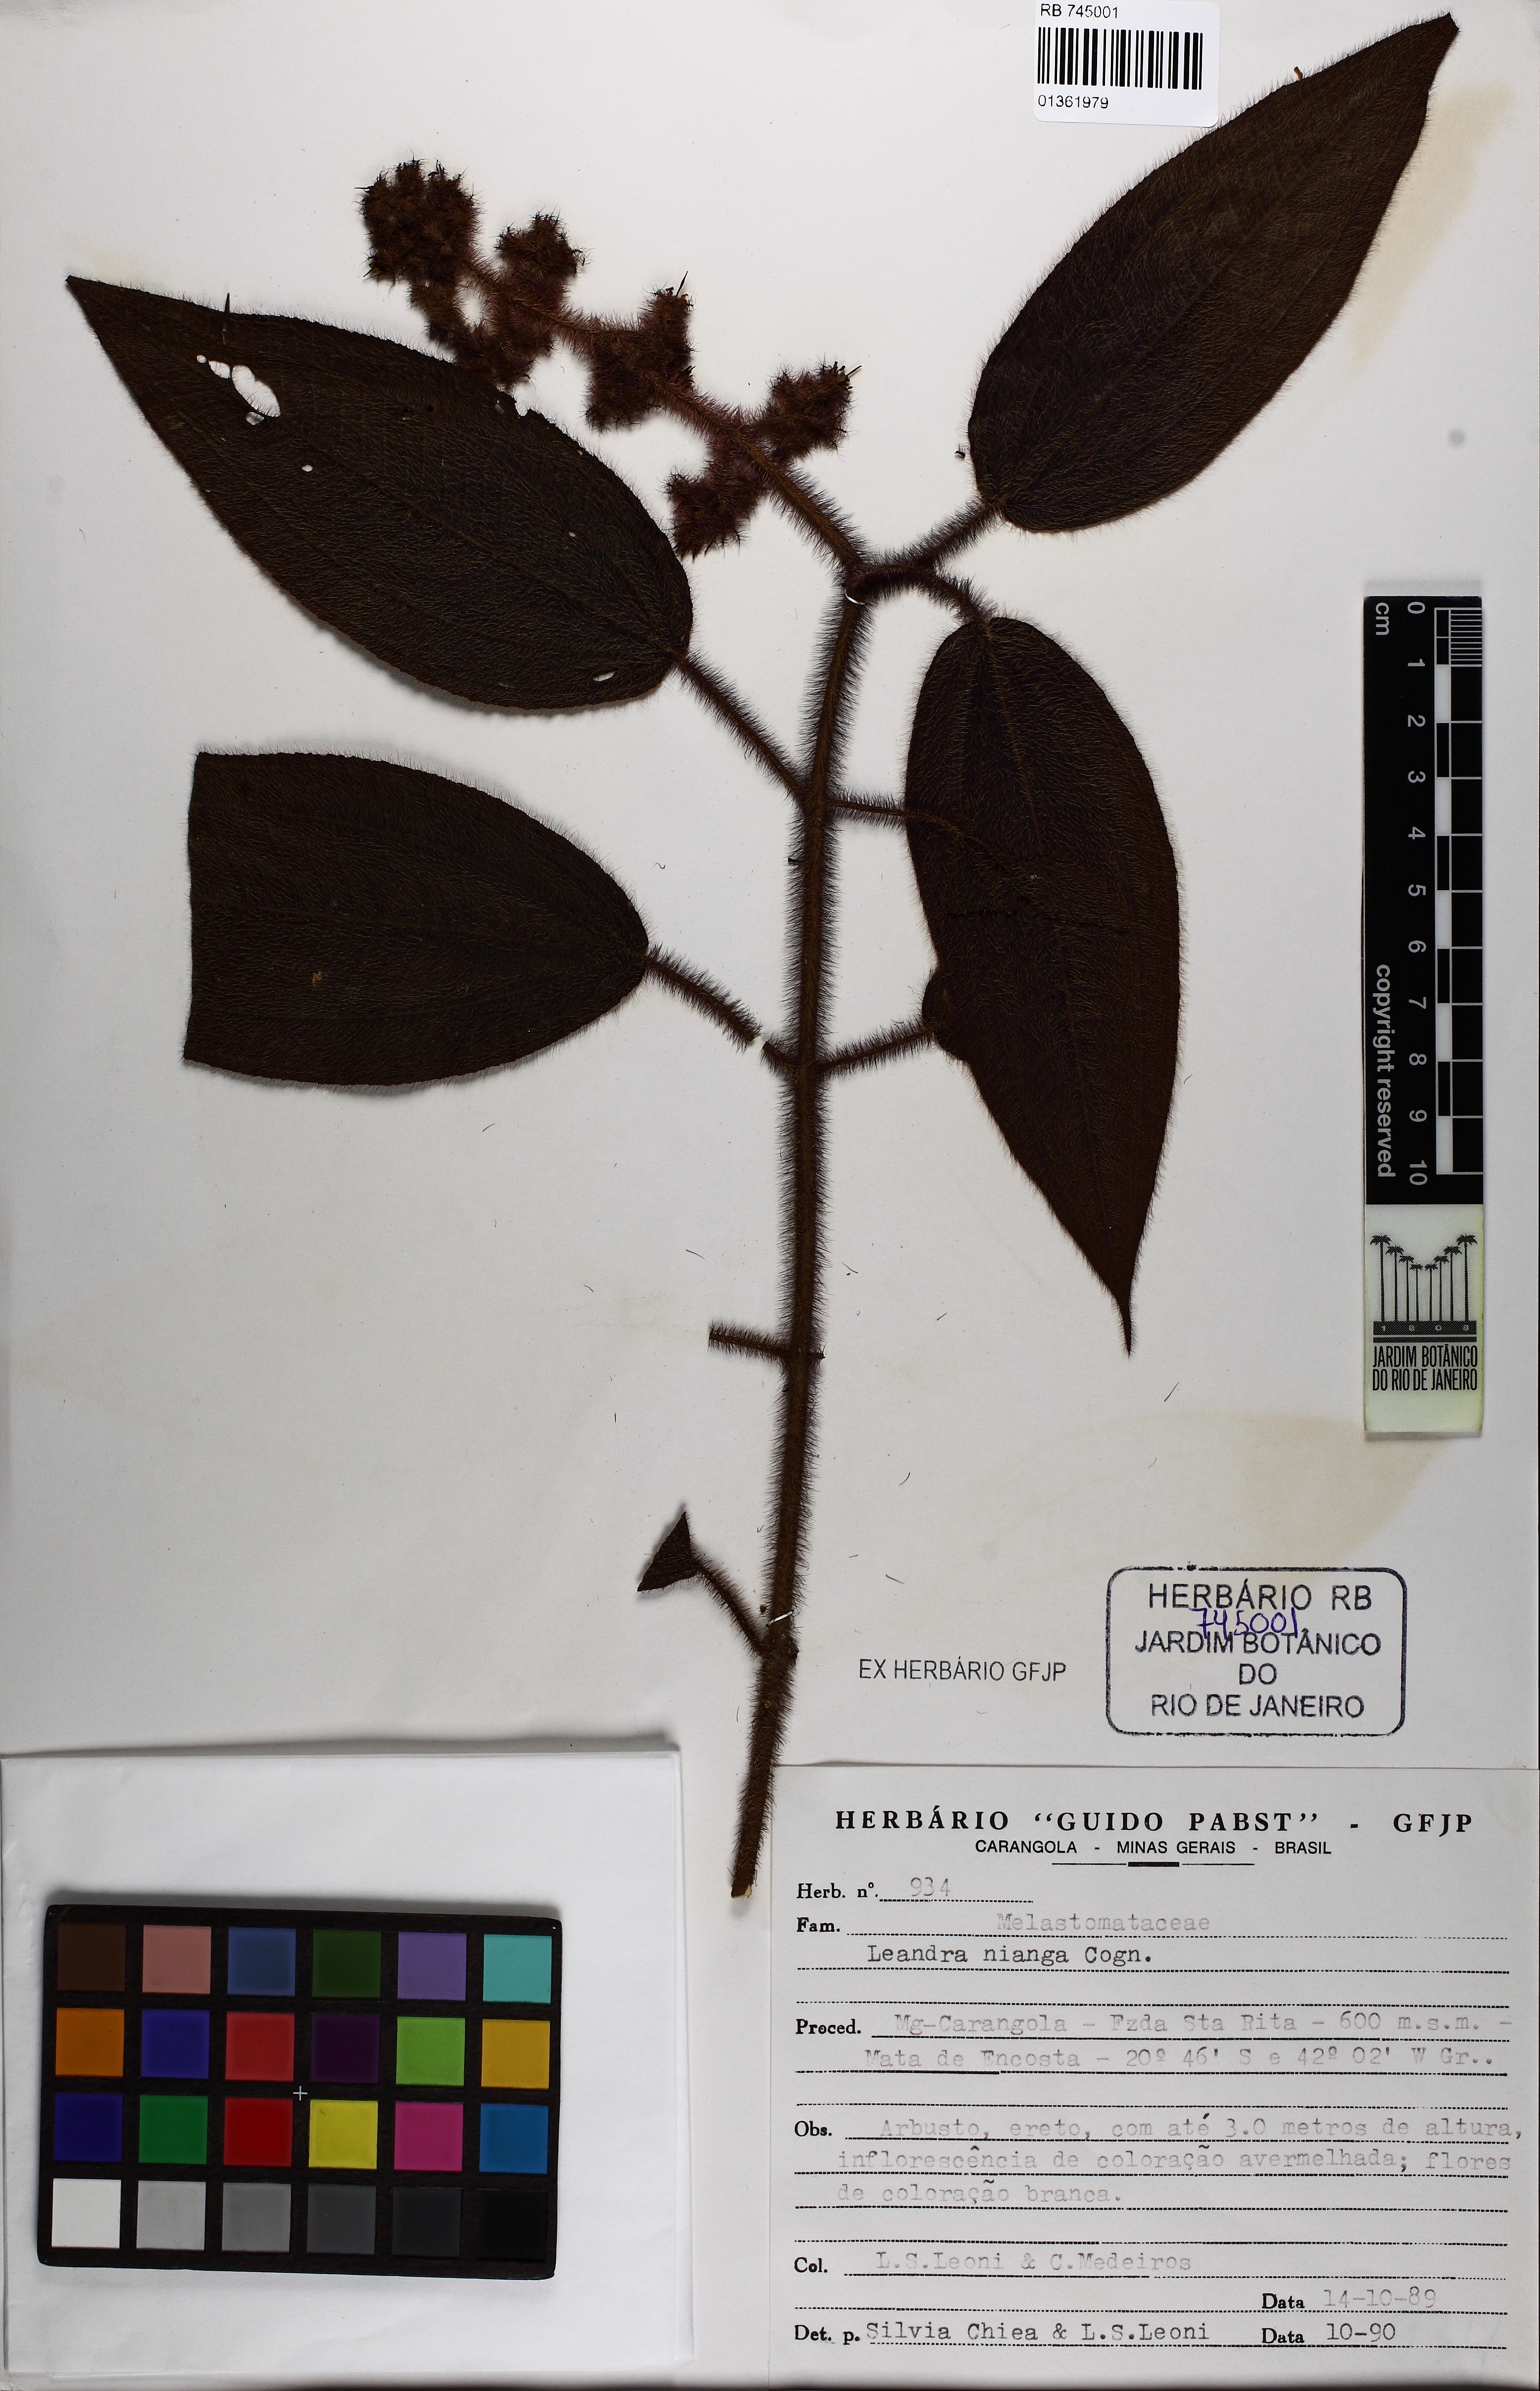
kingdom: Plantae
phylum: Tracheophyta
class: Magnoliopsida
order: Myrtales
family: Melastomataceae
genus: Miconia
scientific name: Miconia nianga
